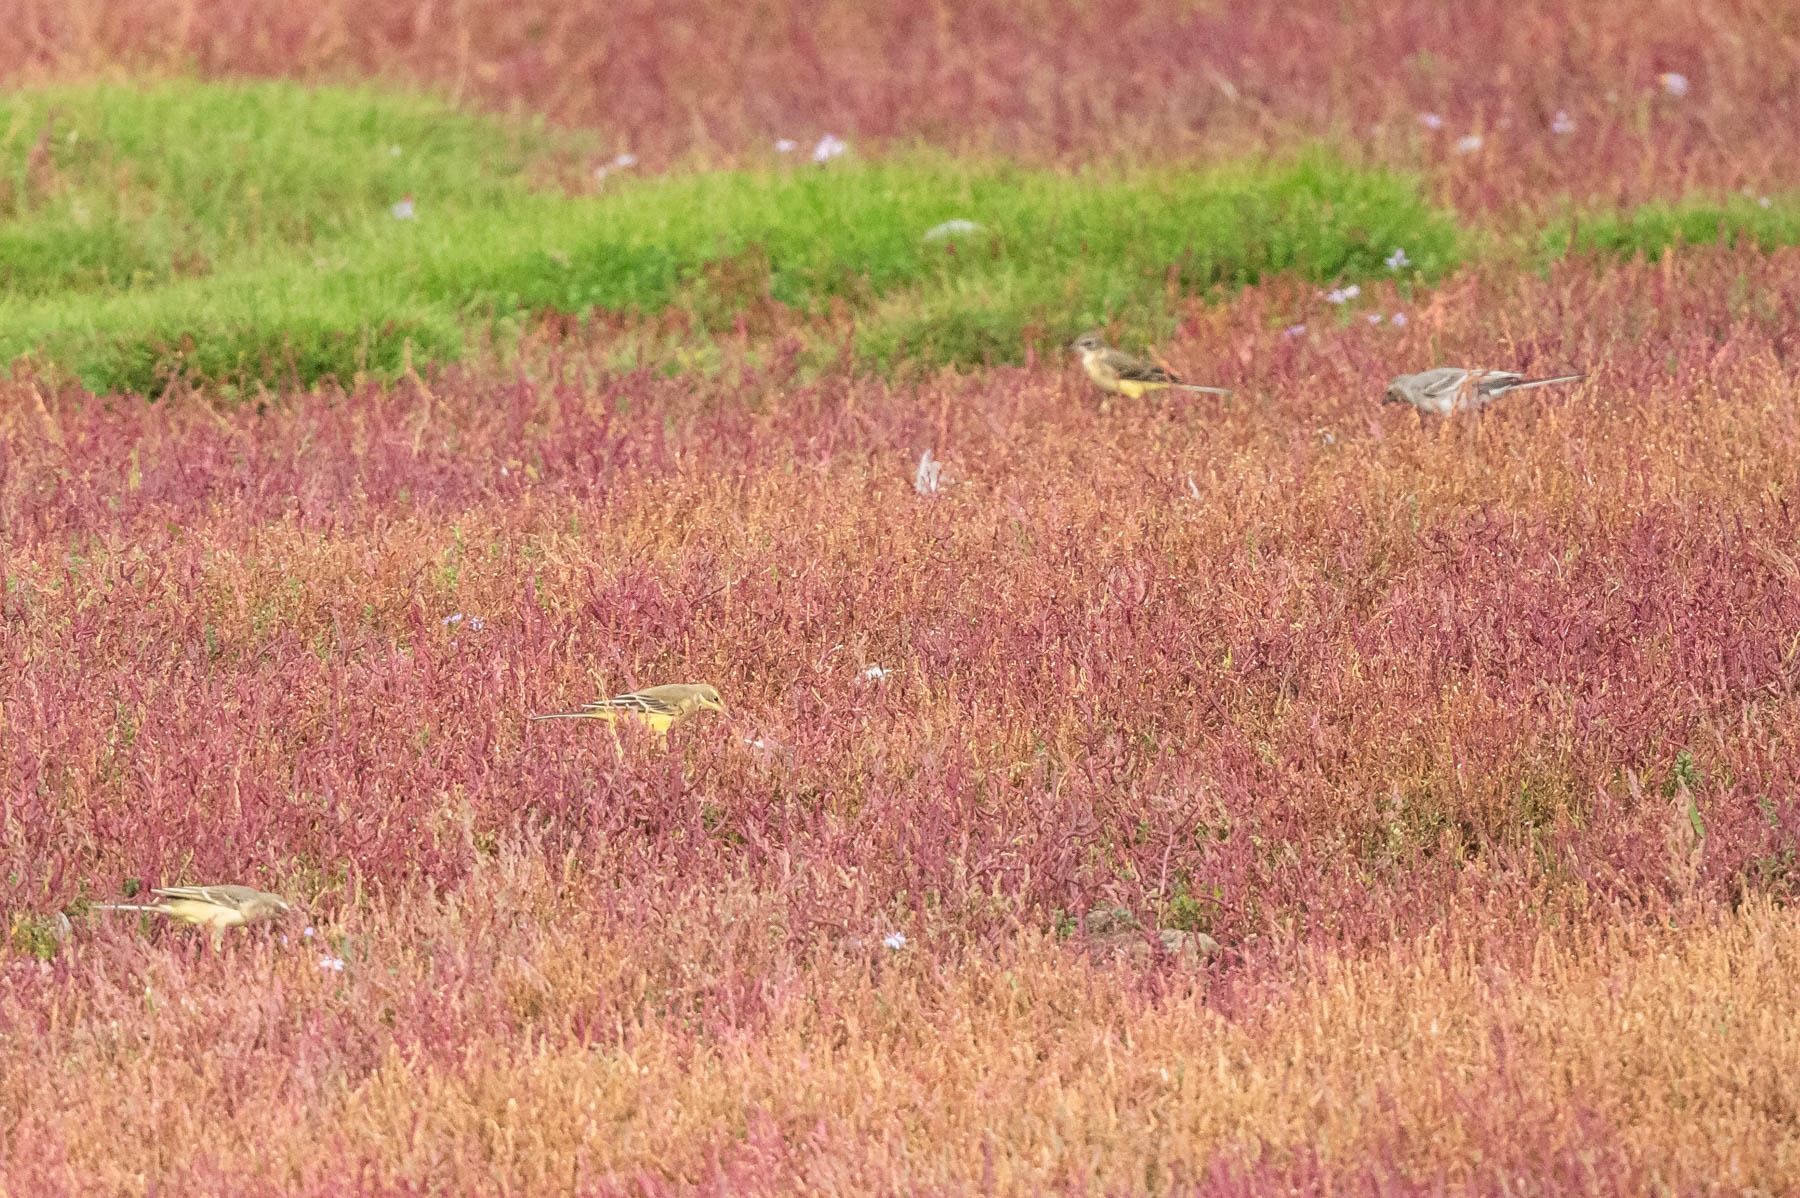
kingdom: Animalia
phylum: Chordata
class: Aves
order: Passeriformes
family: Motacillidae
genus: Motacilla
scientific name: Motacilla flava
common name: Gul vipstjert
